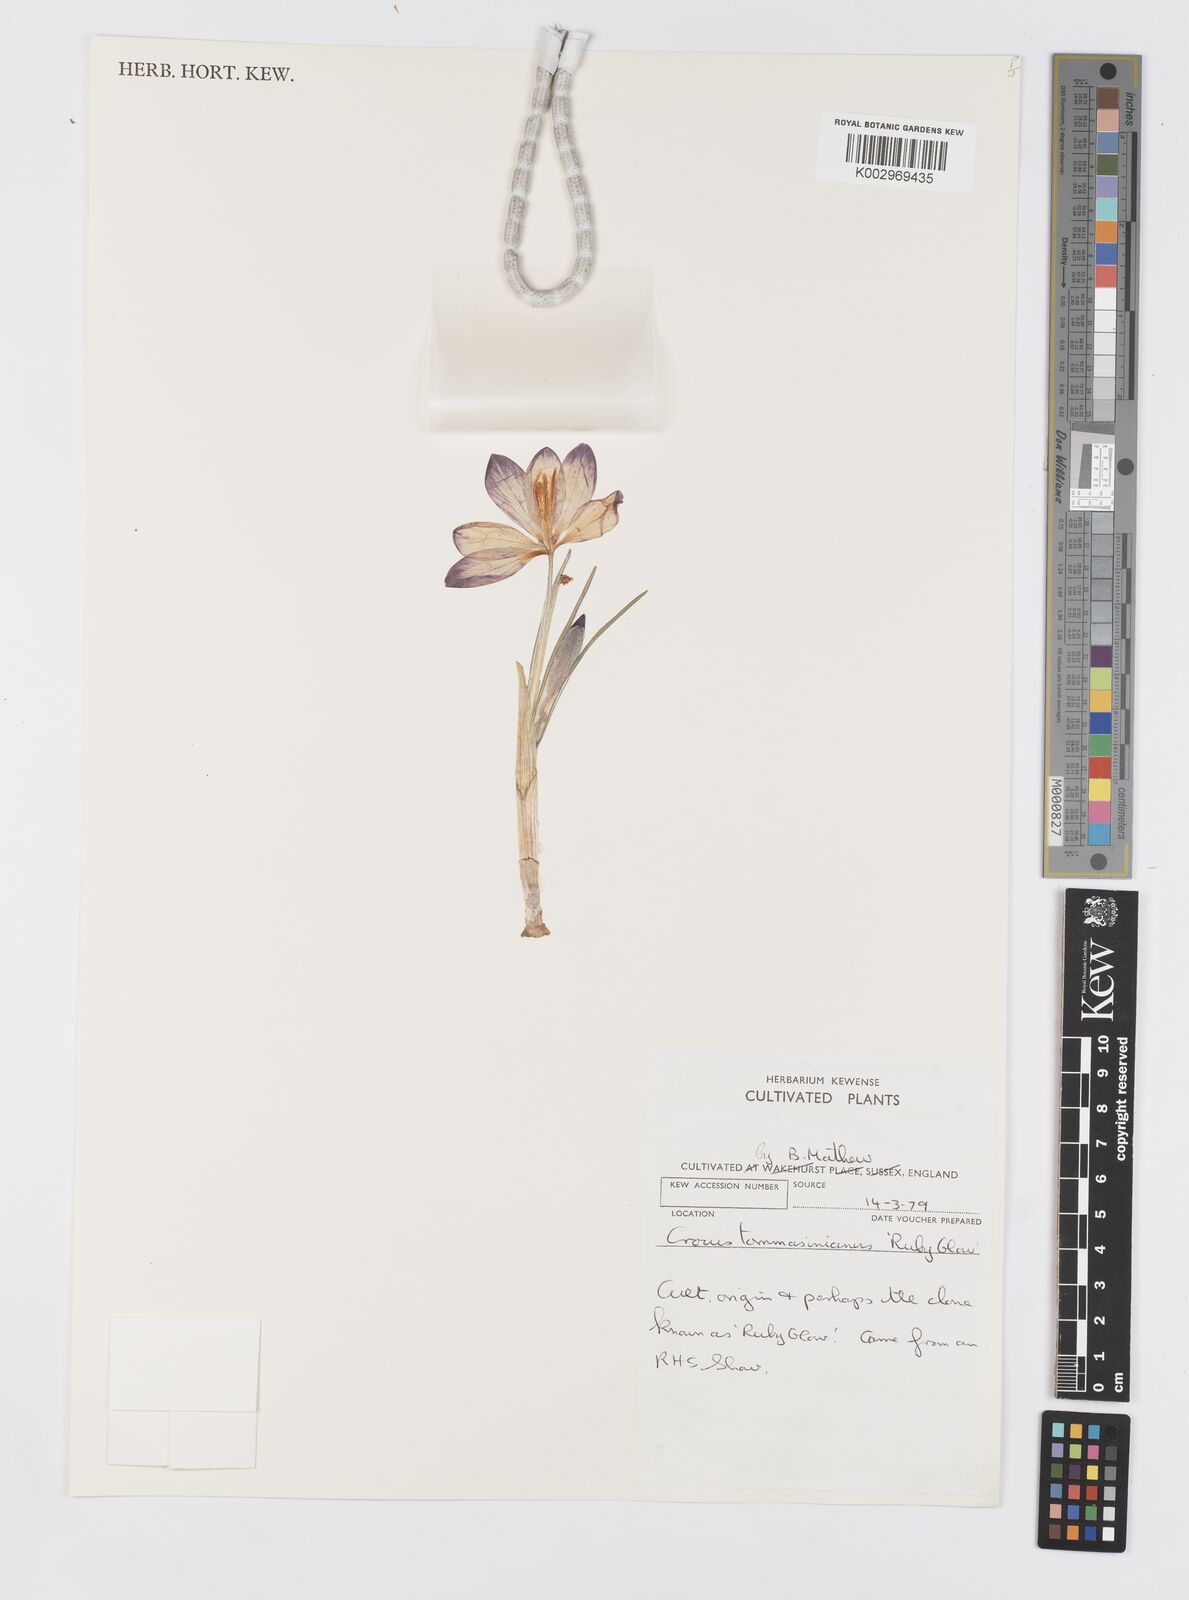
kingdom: Plantae
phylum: Tracheophyta
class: Liliopsida
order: Asparagales
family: Iridaceae
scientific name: Iridaceae
